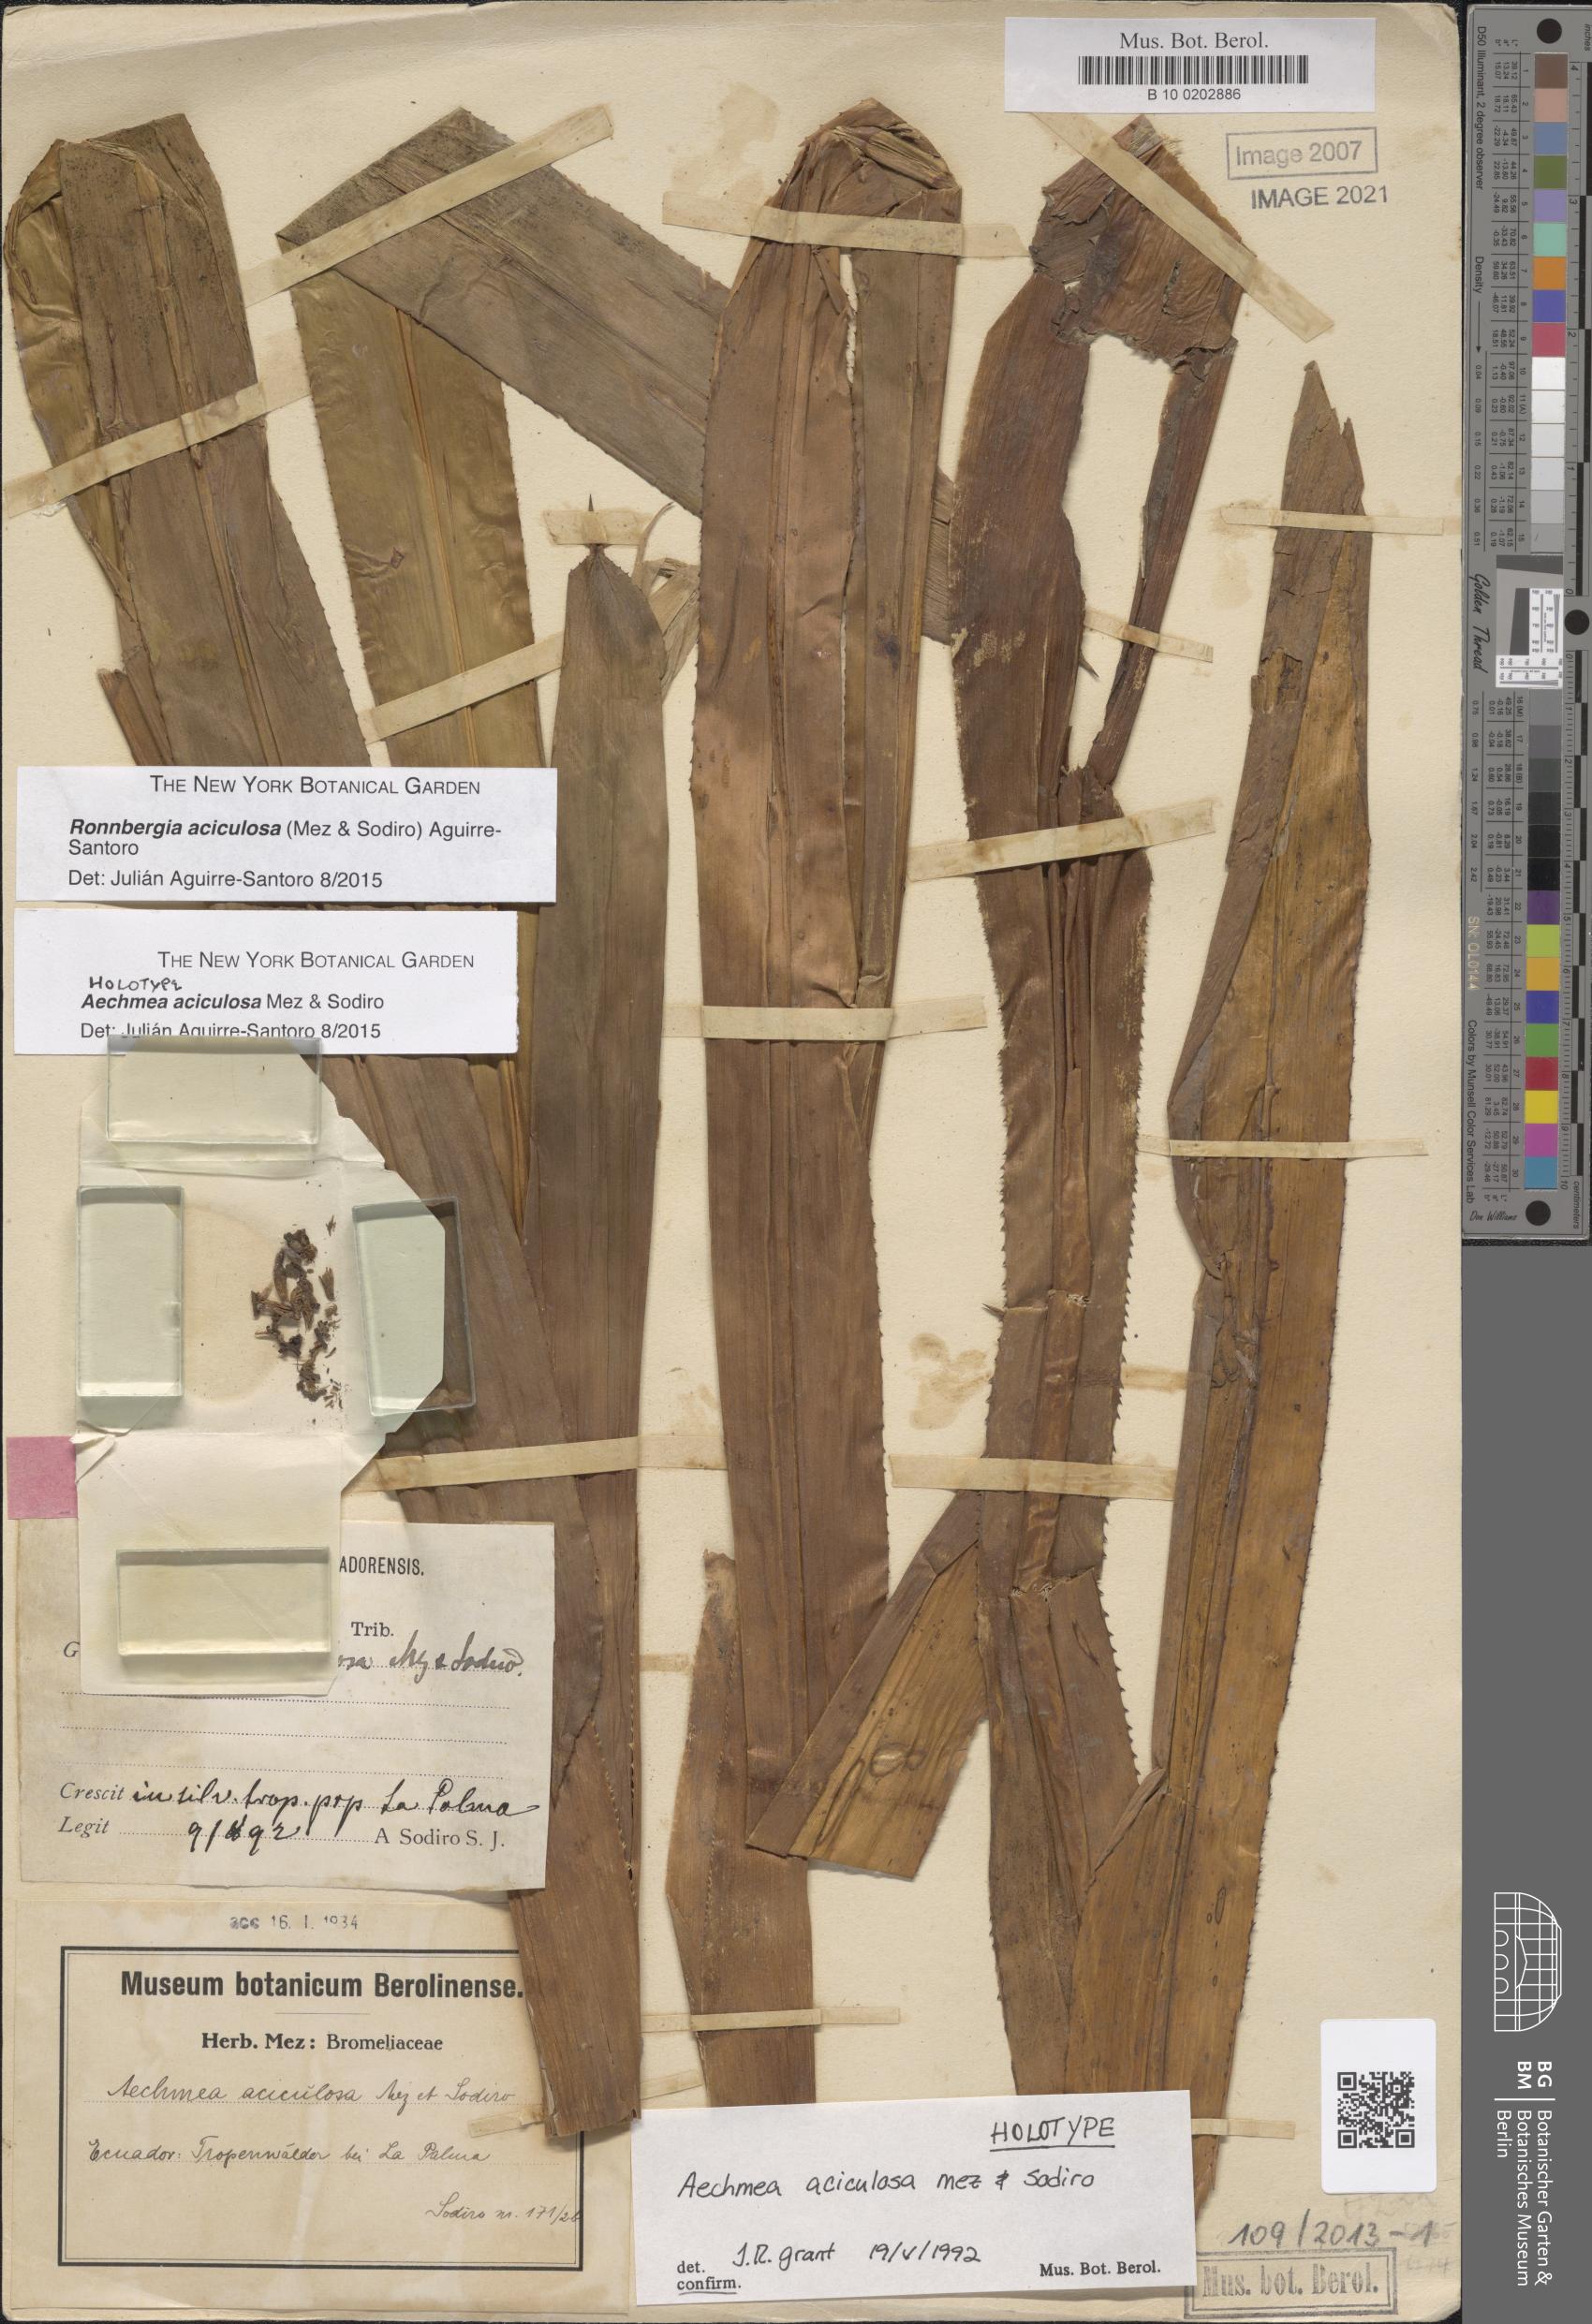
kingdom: Plantae
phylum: Tracheophyta
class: Liliopsida
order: Poales
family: Bromeliaceae
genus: Ronnbergia
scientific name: Ronnbergia aciculosa
